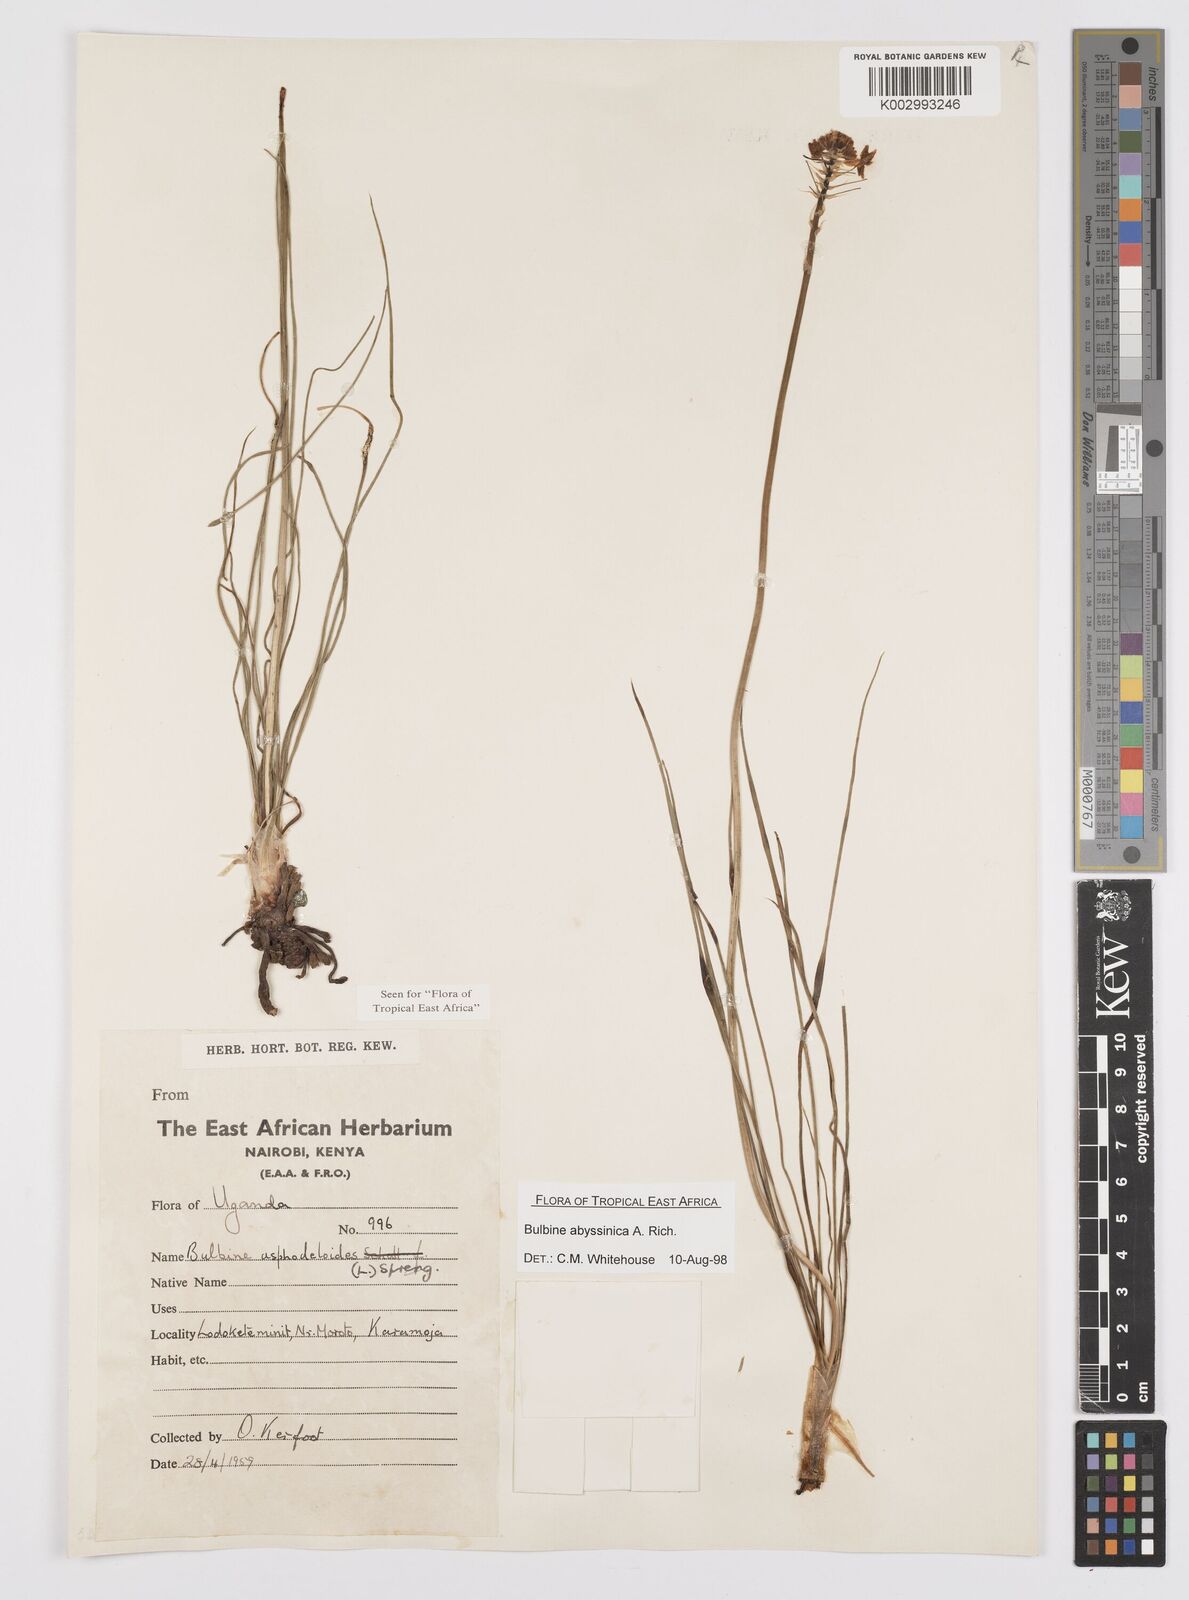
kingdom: Plantae
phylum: Tracheophyta
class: Liliopsida
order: Asparagales
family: Asphodelaceae
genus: Bulbine
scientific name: Bulbine abyssinica
